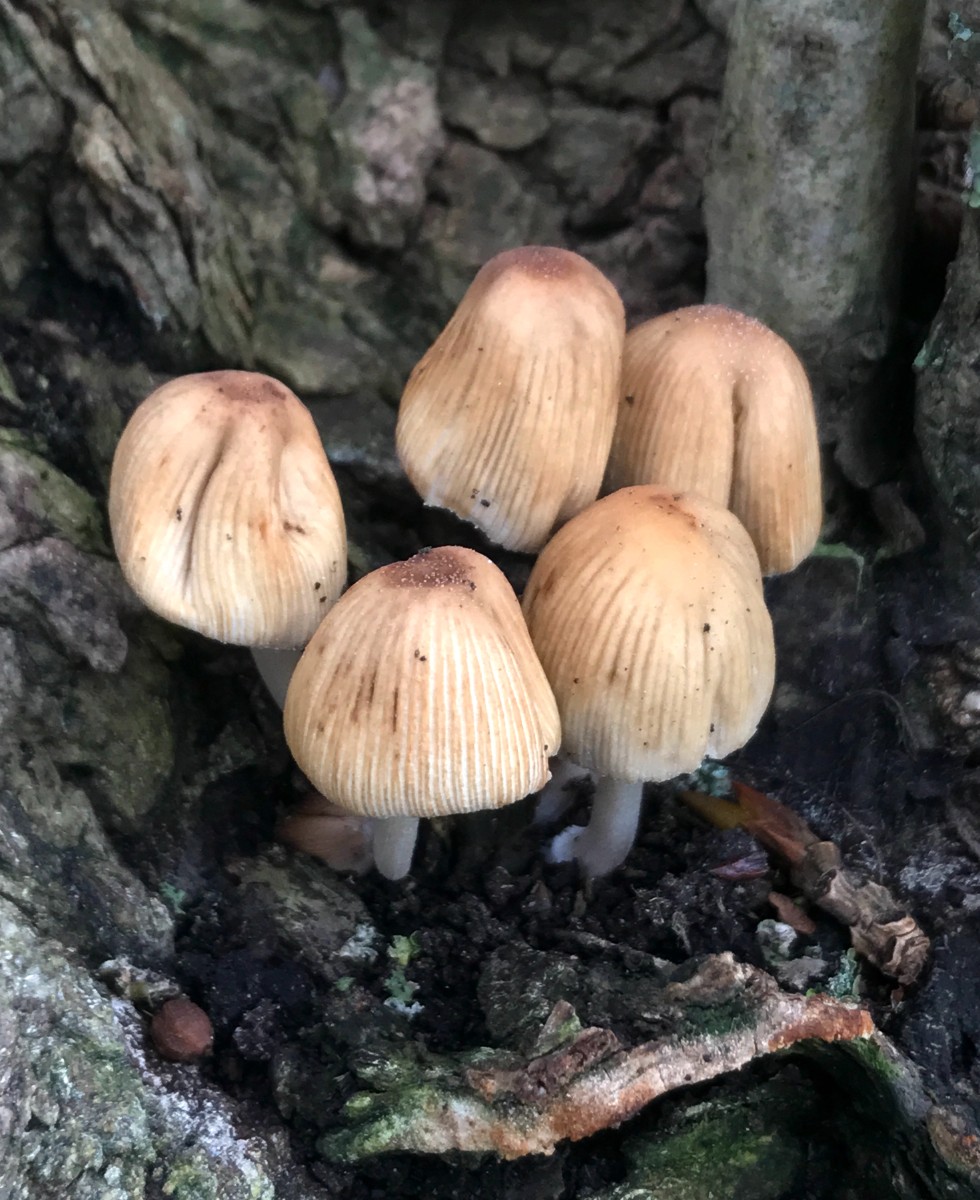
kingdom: Fungi
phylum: Basidiomycota
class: Agaricomycetes
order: Agaricales
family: Psathyrellaceae
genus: Coprinellus
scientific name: Coprinellus micaceus
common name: glimmer-blækhat
